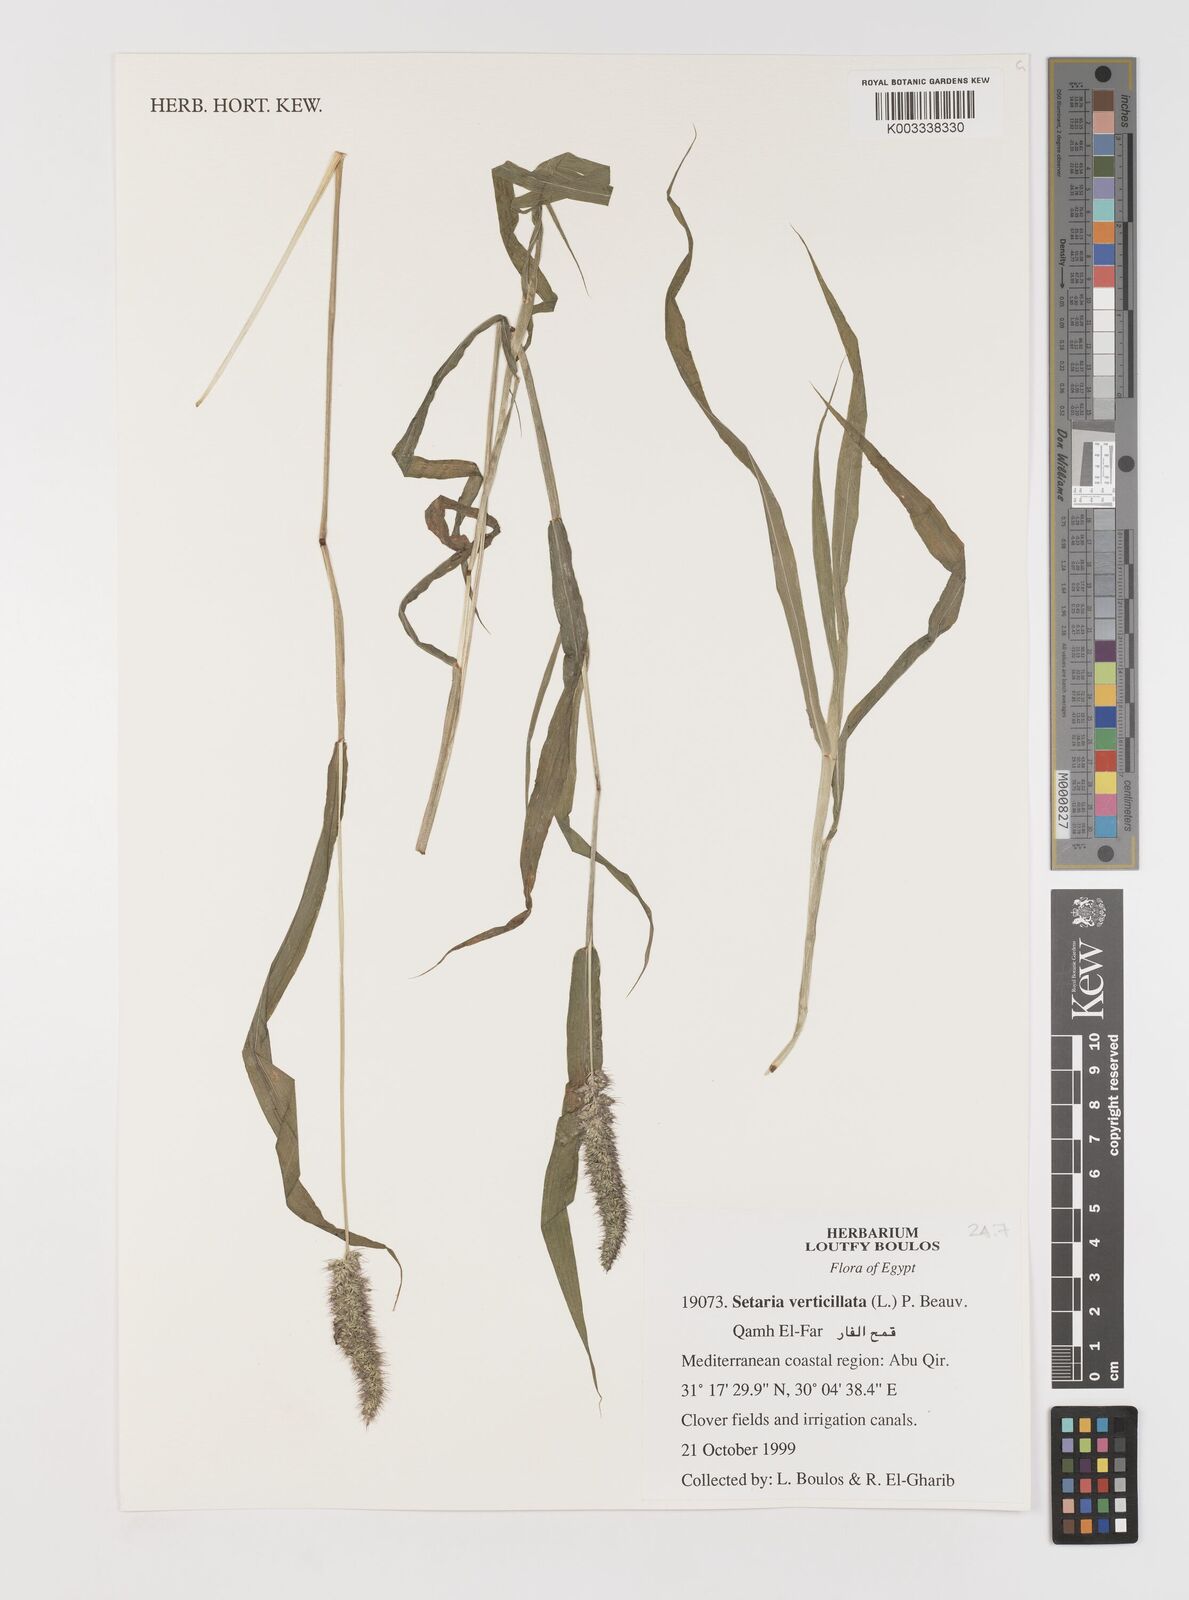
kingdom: Plantae
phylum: Tracheophyta
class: Liliopsida
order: Poales
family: Poaceae
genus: Setaria
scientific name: Setaria verticillata
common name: Hooked bristlegrass
